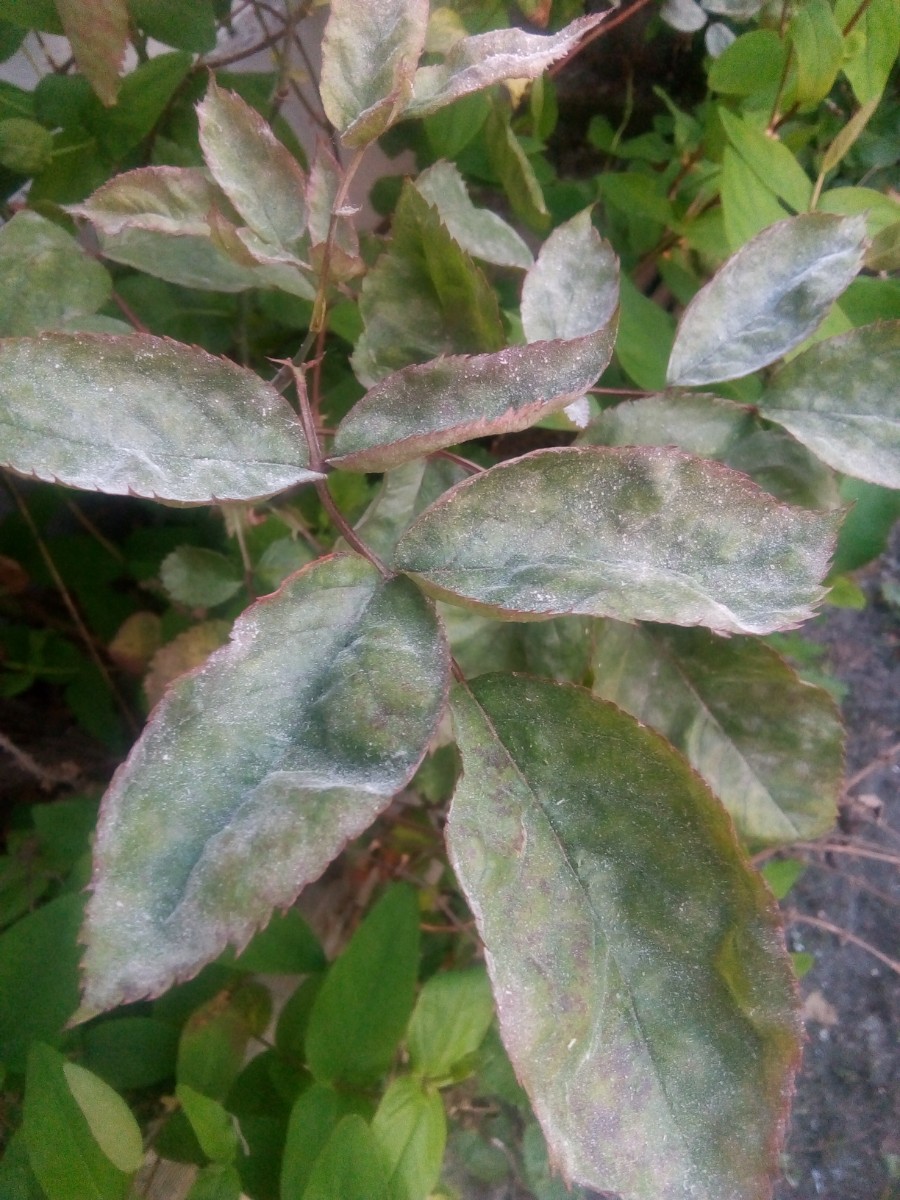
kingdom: Fungi
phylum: Ascomycota
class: Leotiomycetes
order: Helotiales
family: Erysiphaceae
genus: Podosphaera
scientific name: Podosphaera pannosa
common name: Rose mildew
